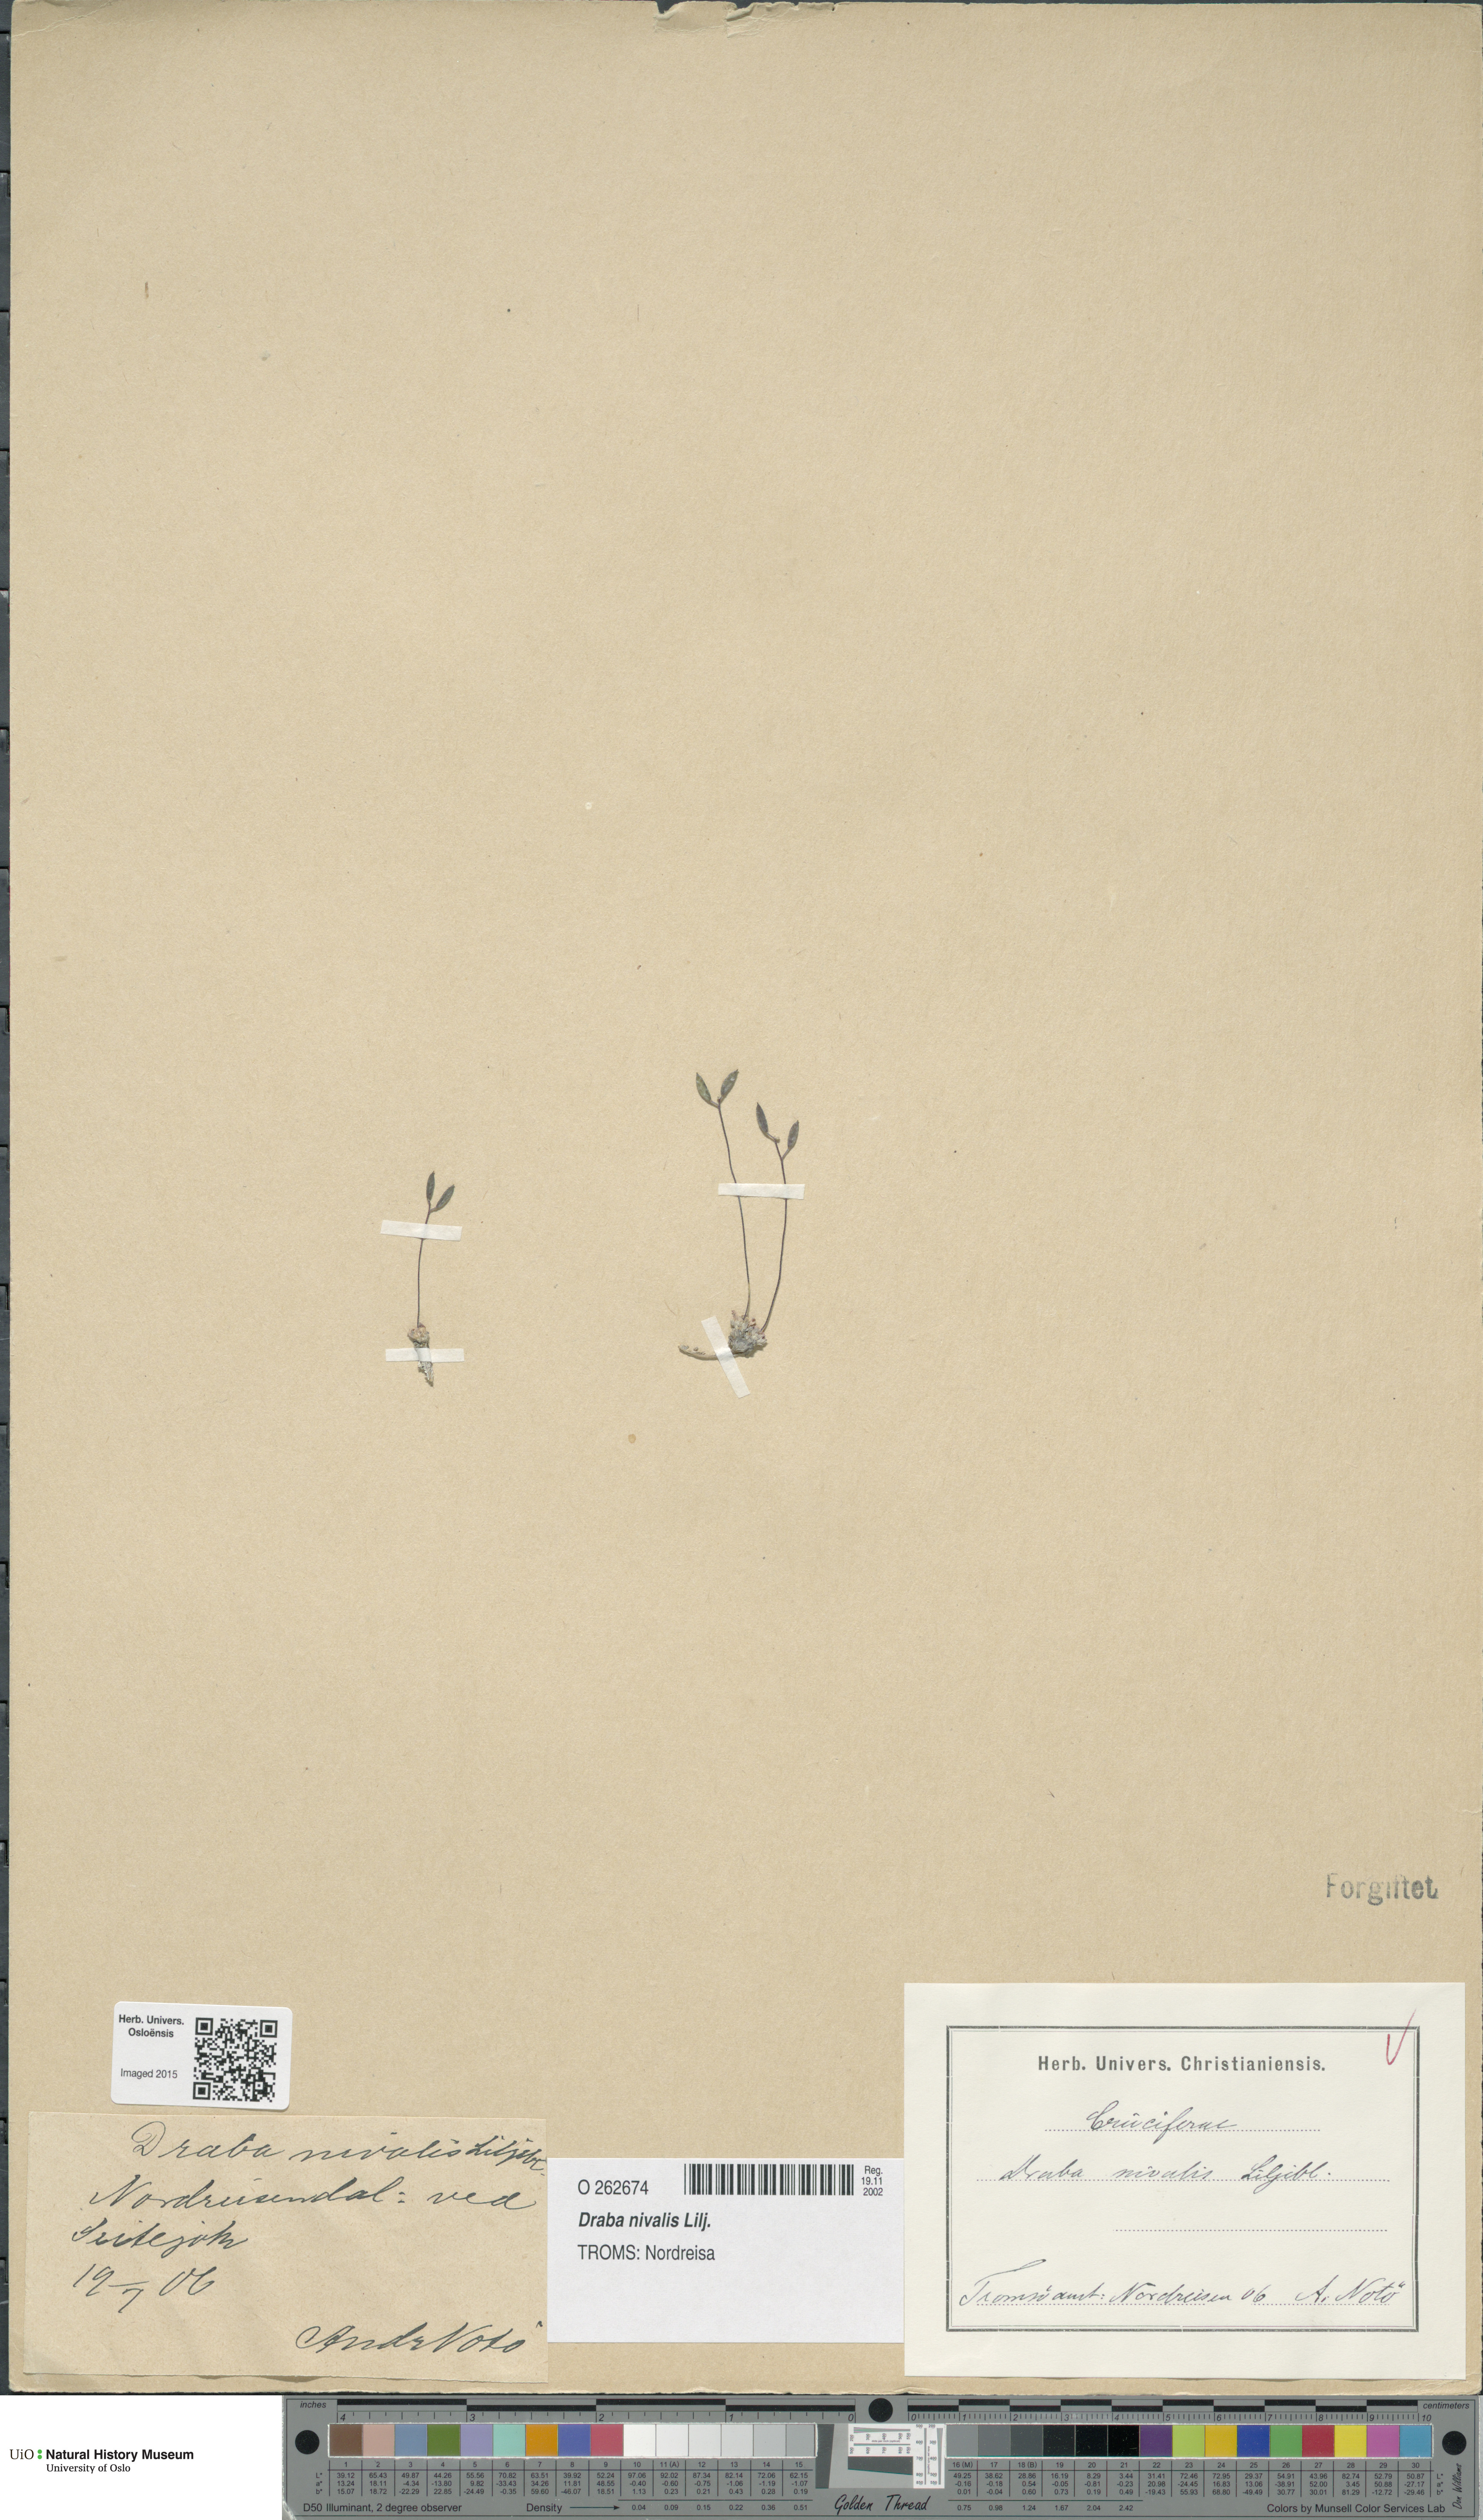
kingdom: Plantae
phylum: Tracheophyta
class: Magnoliopsida
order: Brassicales
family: Brassicaceae
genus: Draba
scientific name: Draba nivalis
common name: Snow draba
